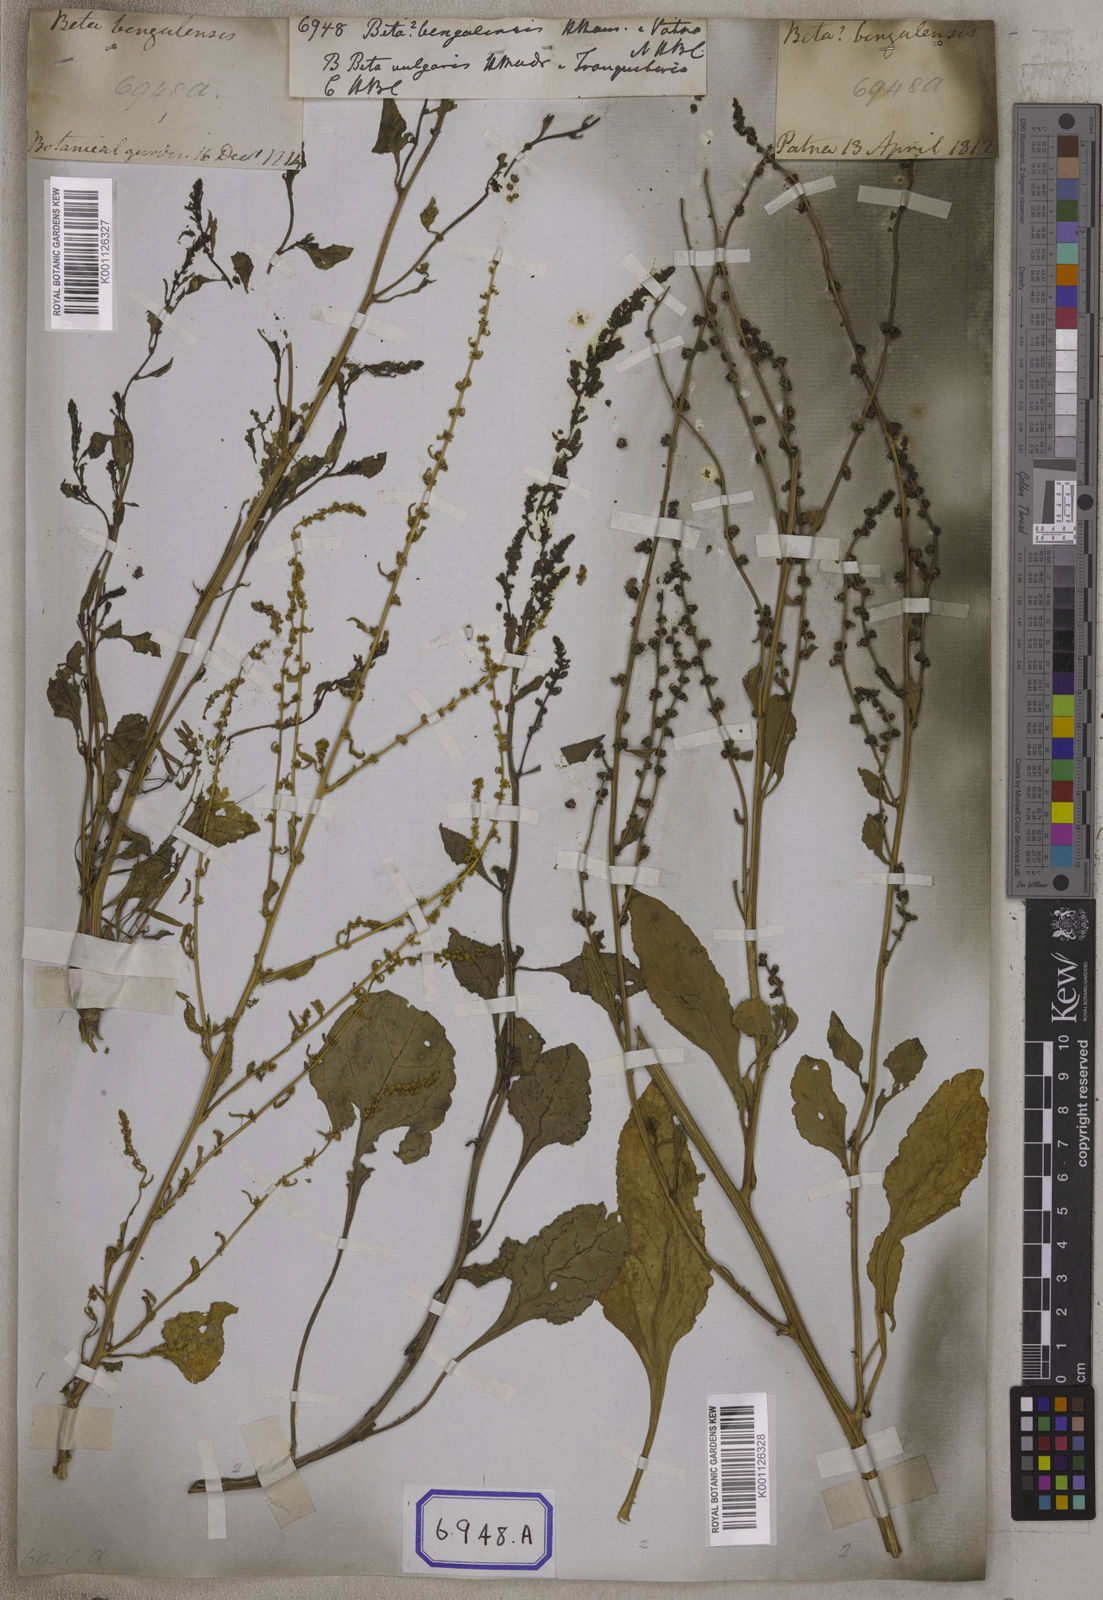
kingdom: Plantae
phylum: Tracheophyta
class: Magnoliopsida
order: Caryophyllales
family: Amaranthaceae
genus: Beta
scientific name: Beta vulgaris
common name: Beet
